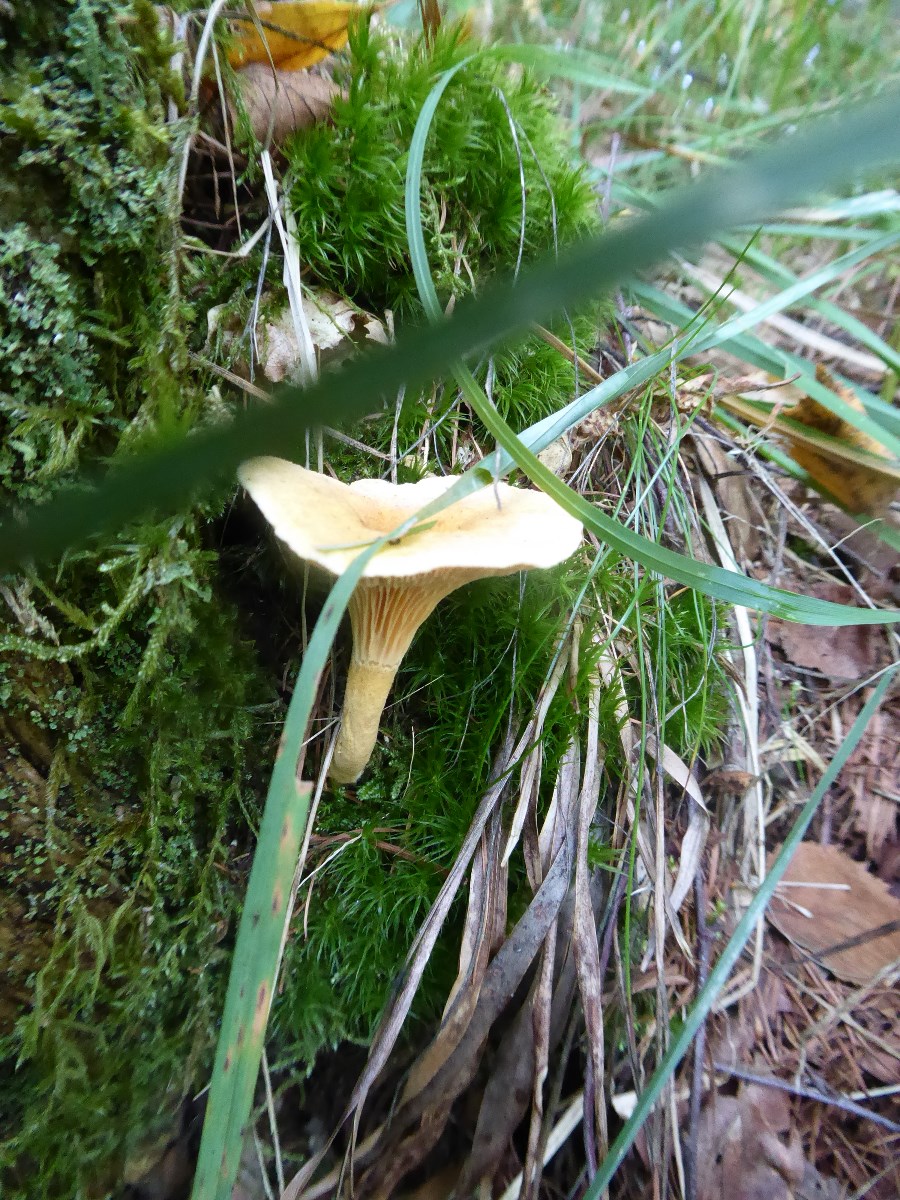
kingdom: Fungi
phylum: Basidiomycota
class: Agaricomycetes
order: Boletales
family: Hygrophoropsidaceae
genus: Hygrophoropsis
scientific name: Hygrophoropsis aurantiaca
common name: almindelig orangekantarel
